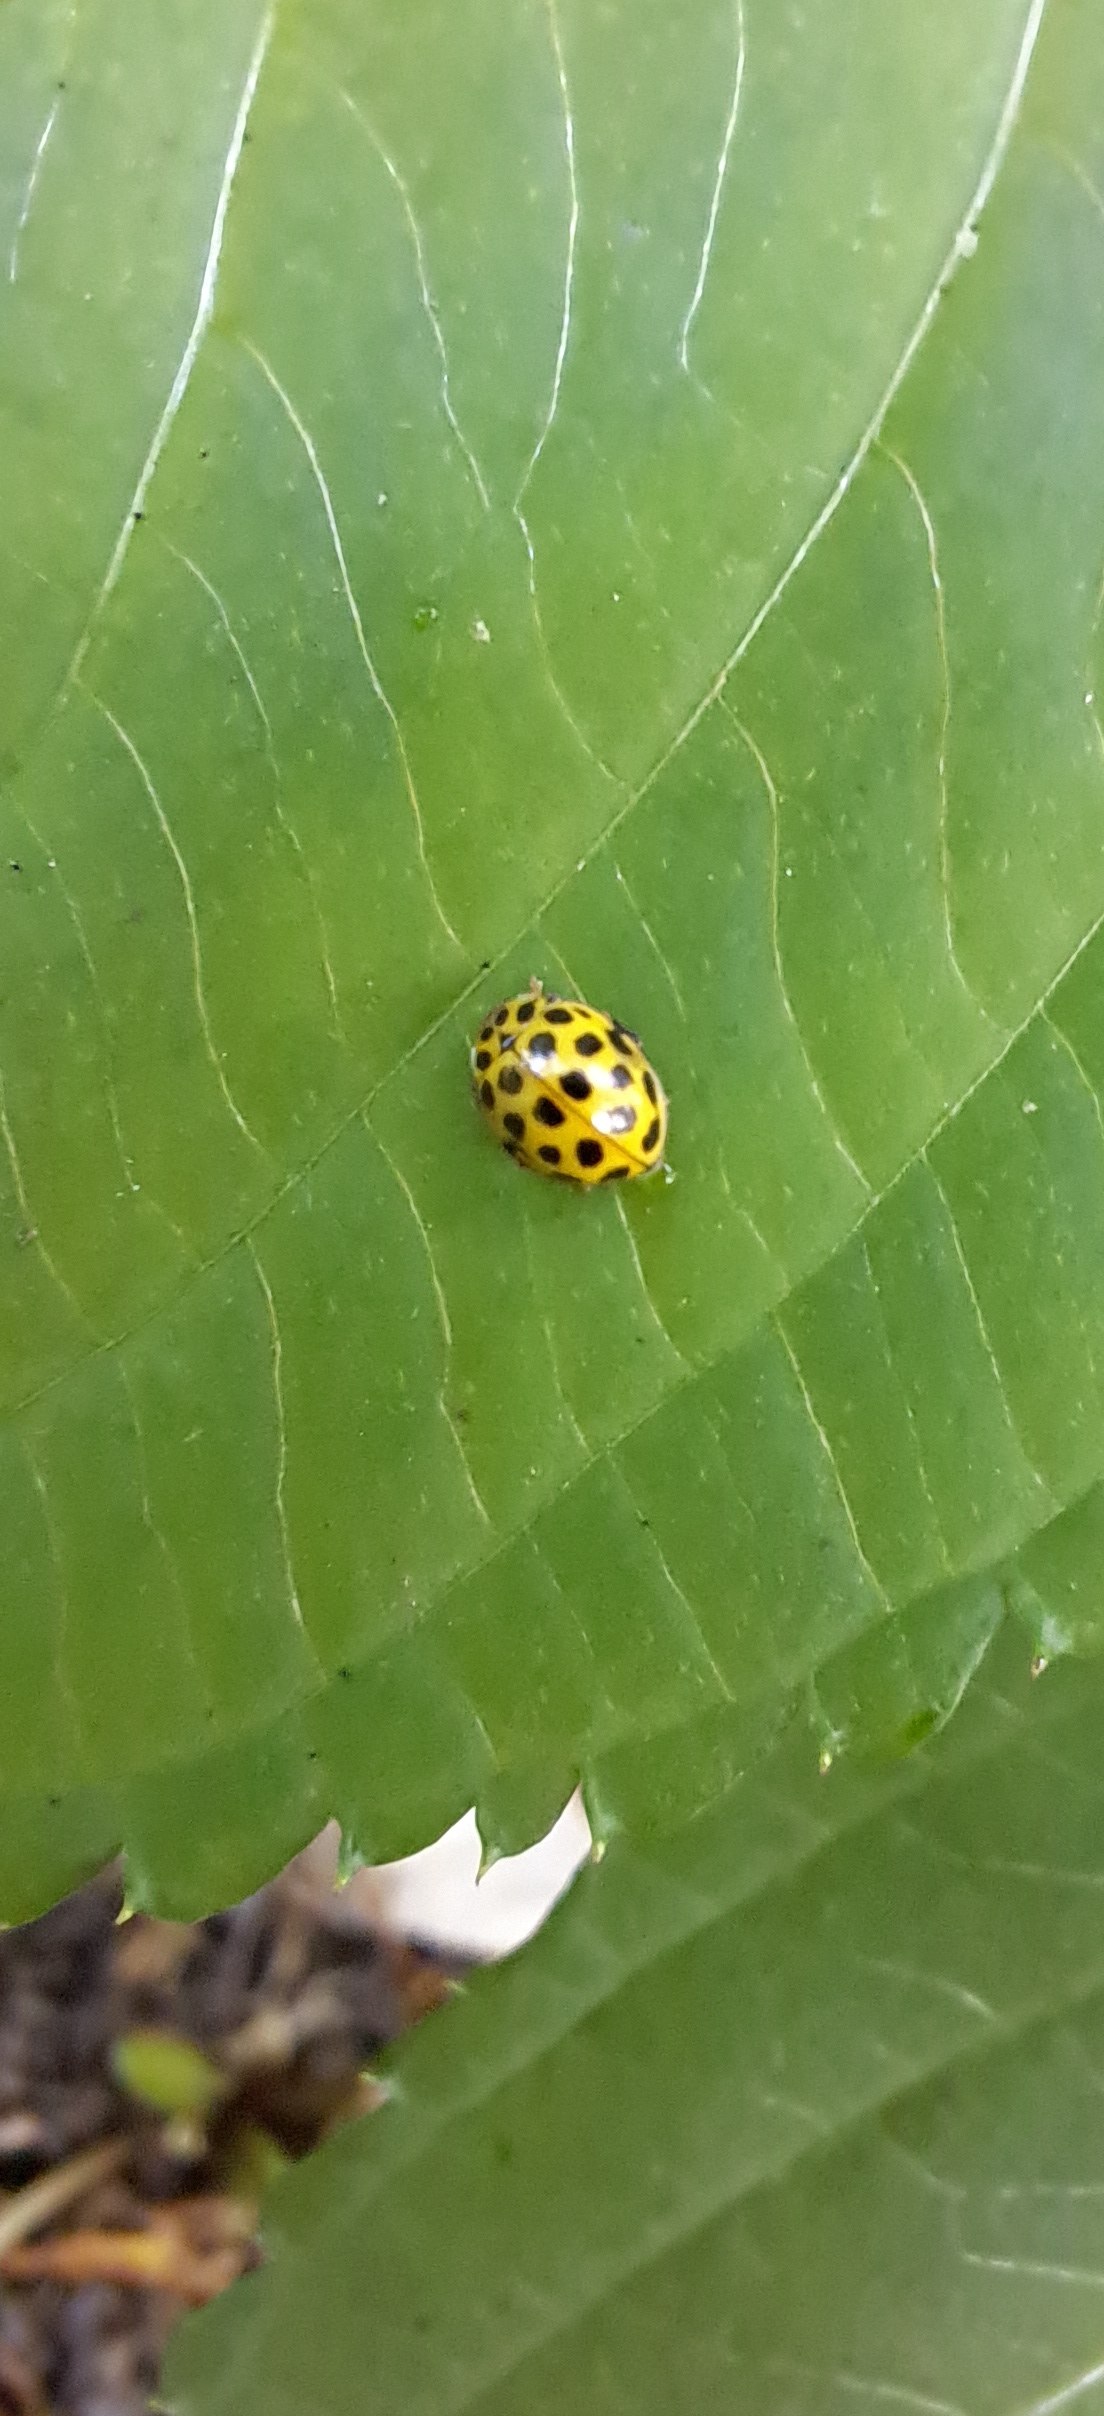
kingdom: Animalia
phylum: Arthropoda
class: Insecta
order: Coleoptera
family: Coccinellidae
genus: Psyllobora
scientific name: Psyllobora vigintiduopunctata
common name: Toogtyveplettet mariehøne
